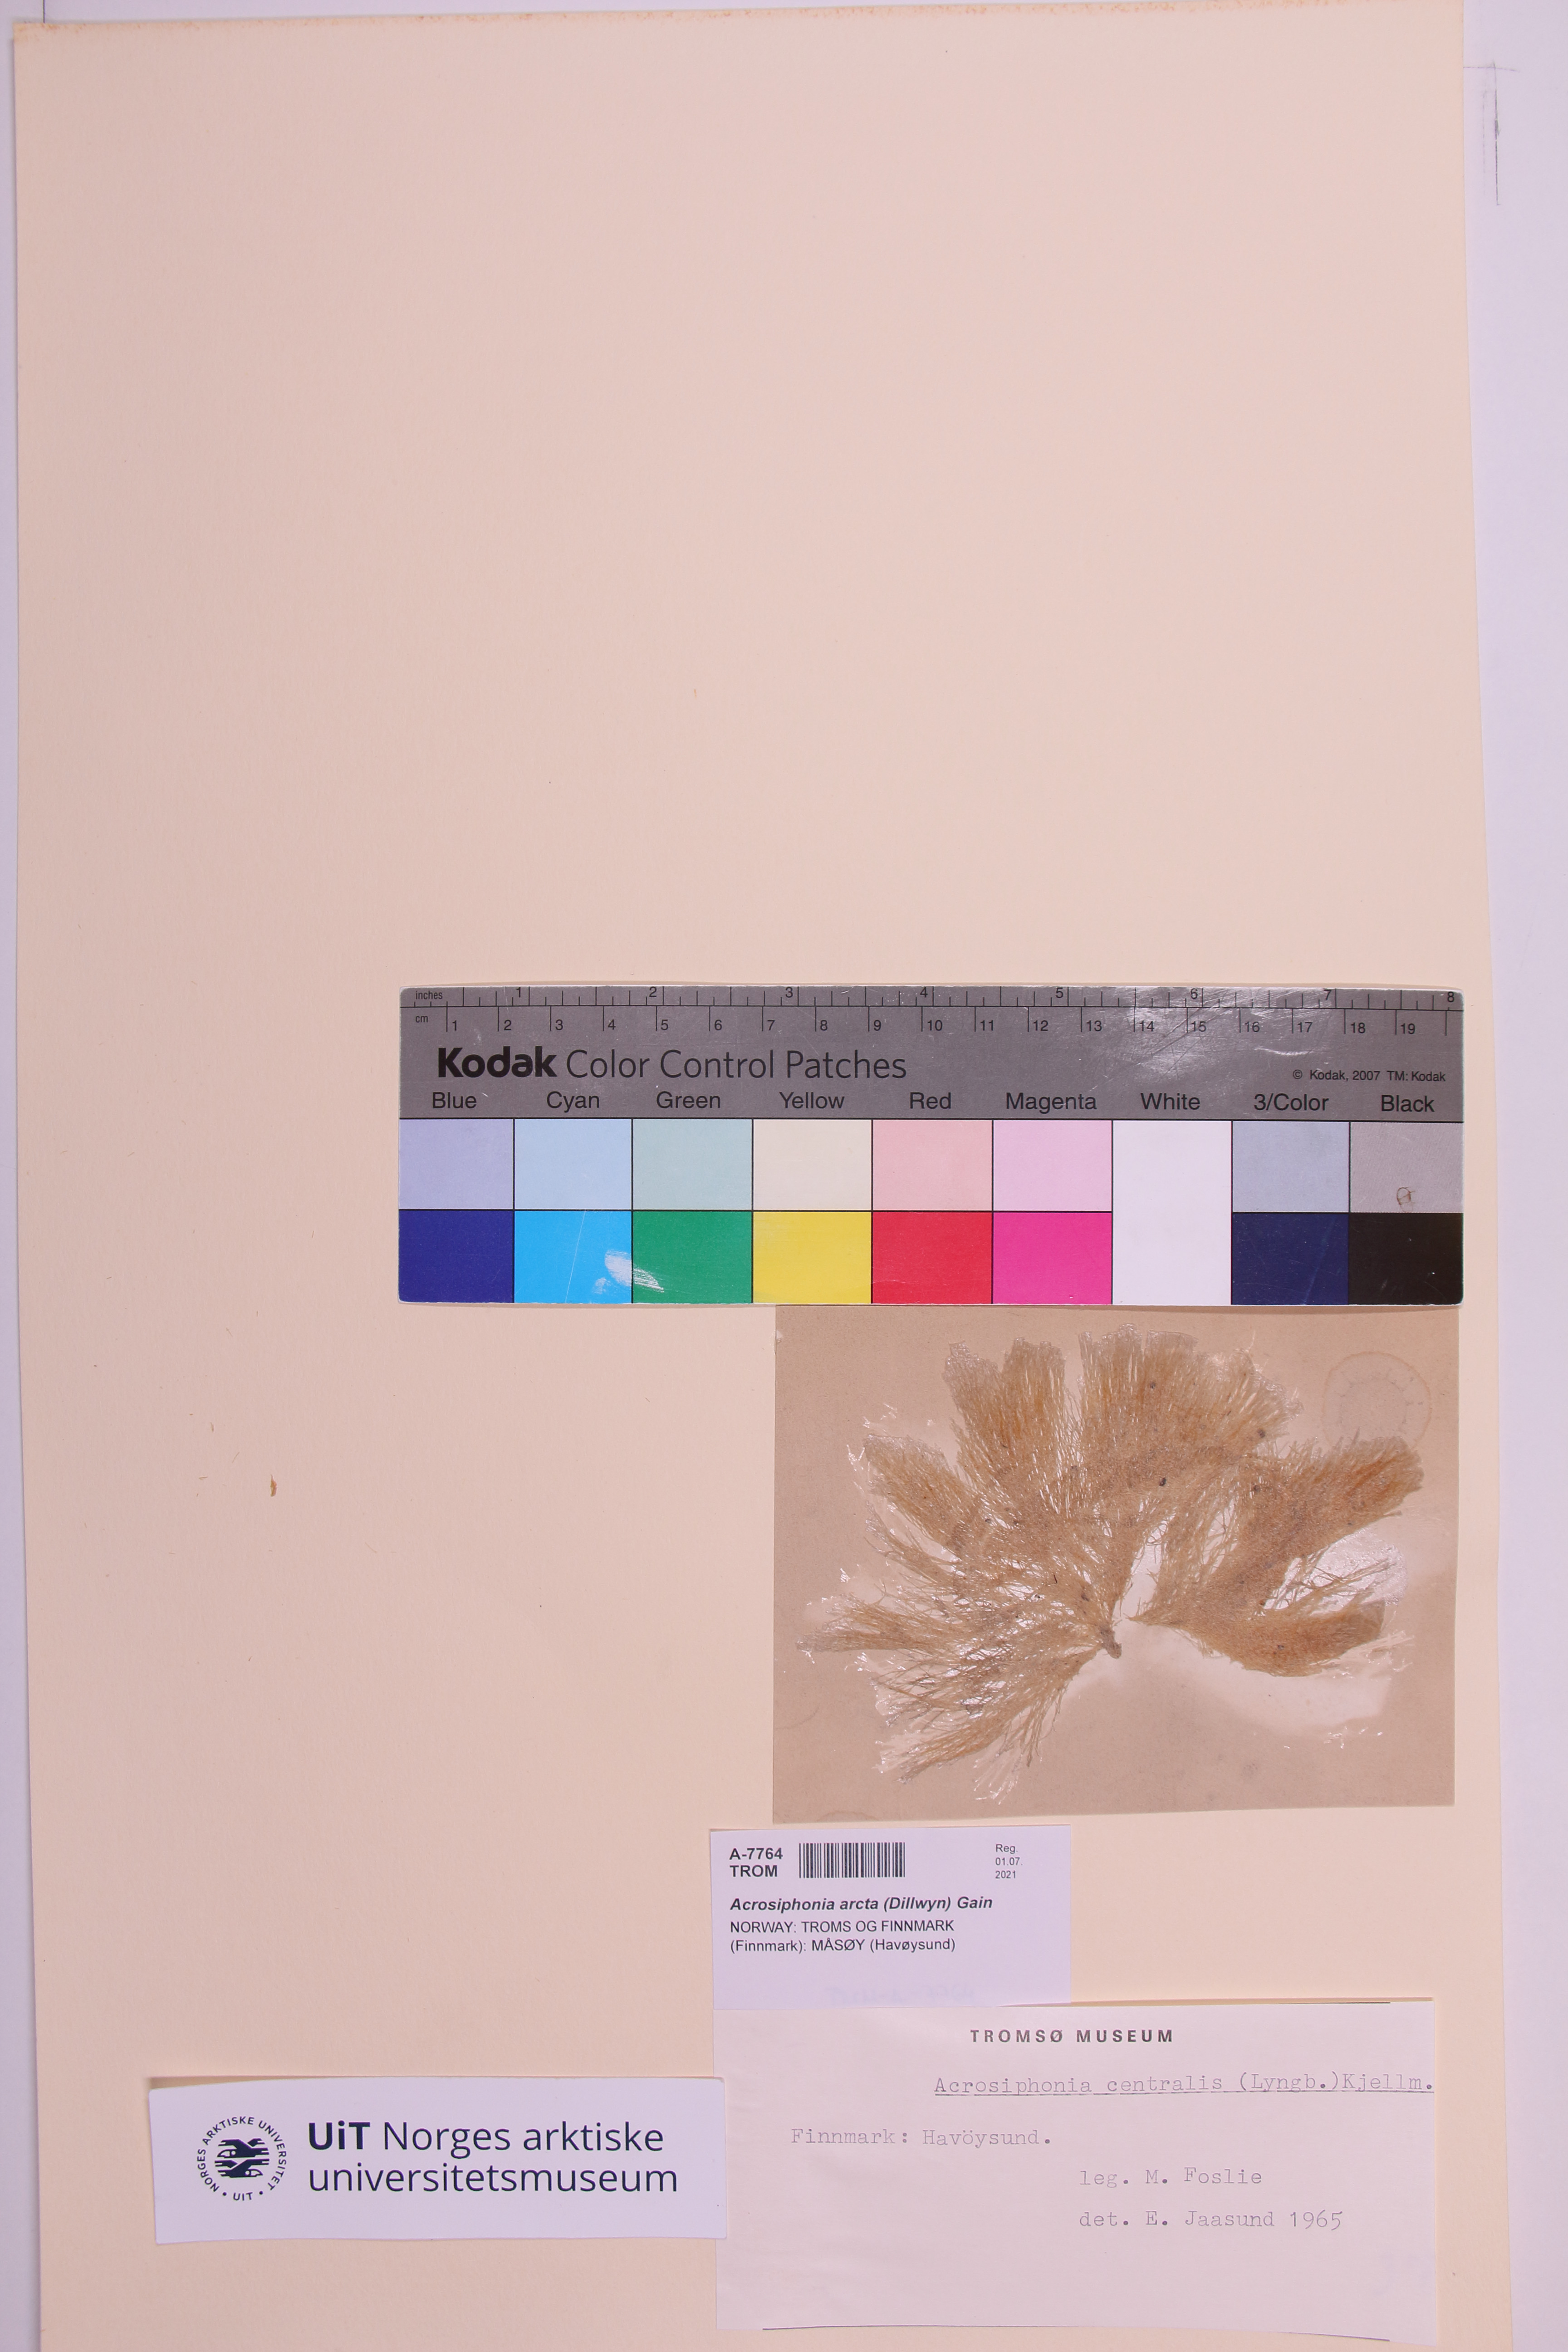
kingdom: Plantae
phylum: Chlorophyta
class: Ulvophyceae
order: Ulotrichales
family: Ulotrichaceae
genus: Acrosiphonia
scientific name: Acrosiphonia sonderi
